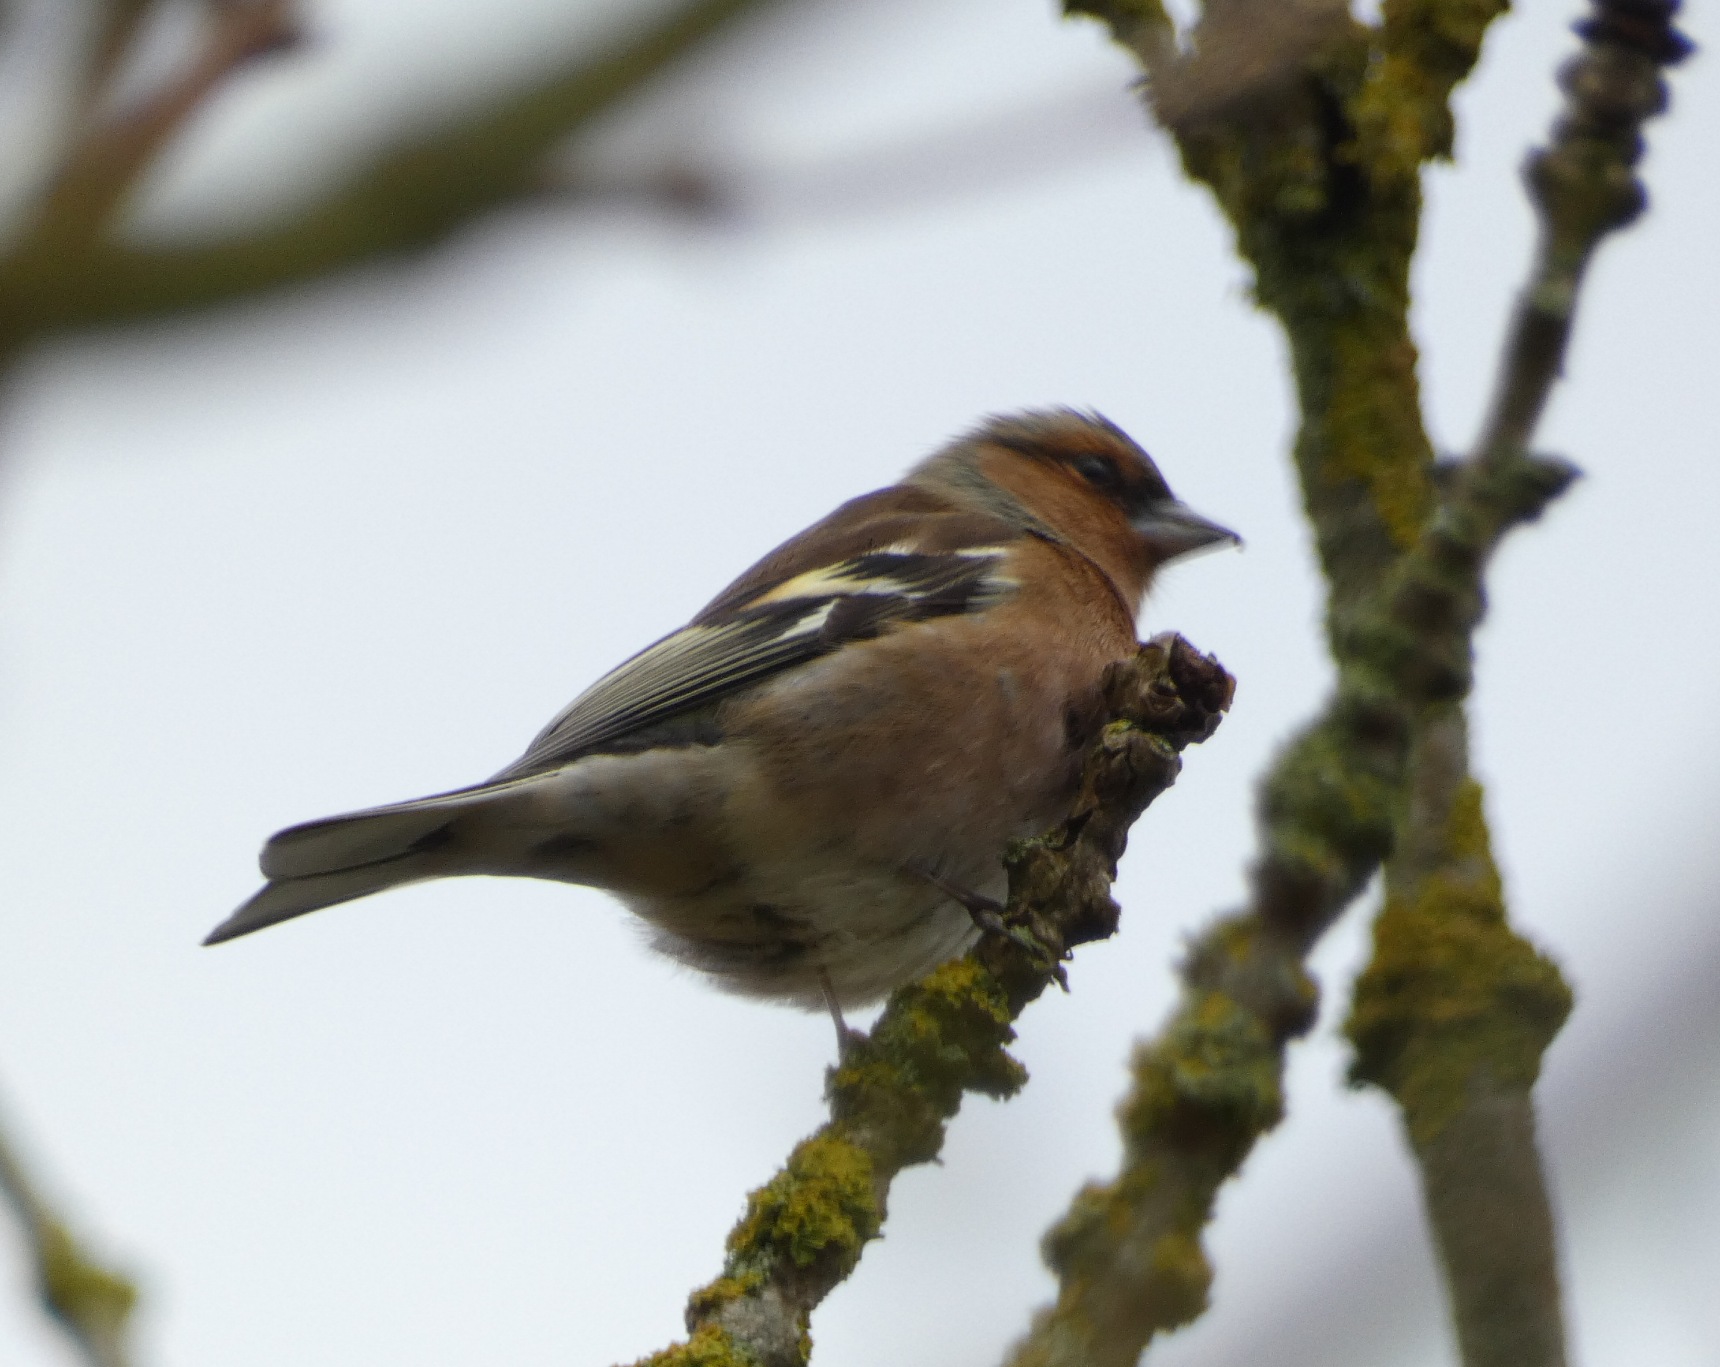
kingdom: Animalia
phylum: Chordata
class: Aves
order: Passeriformes
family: Fringillidae
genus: Fringilla
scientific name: Fringilla coelebs
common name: Bogfinke
